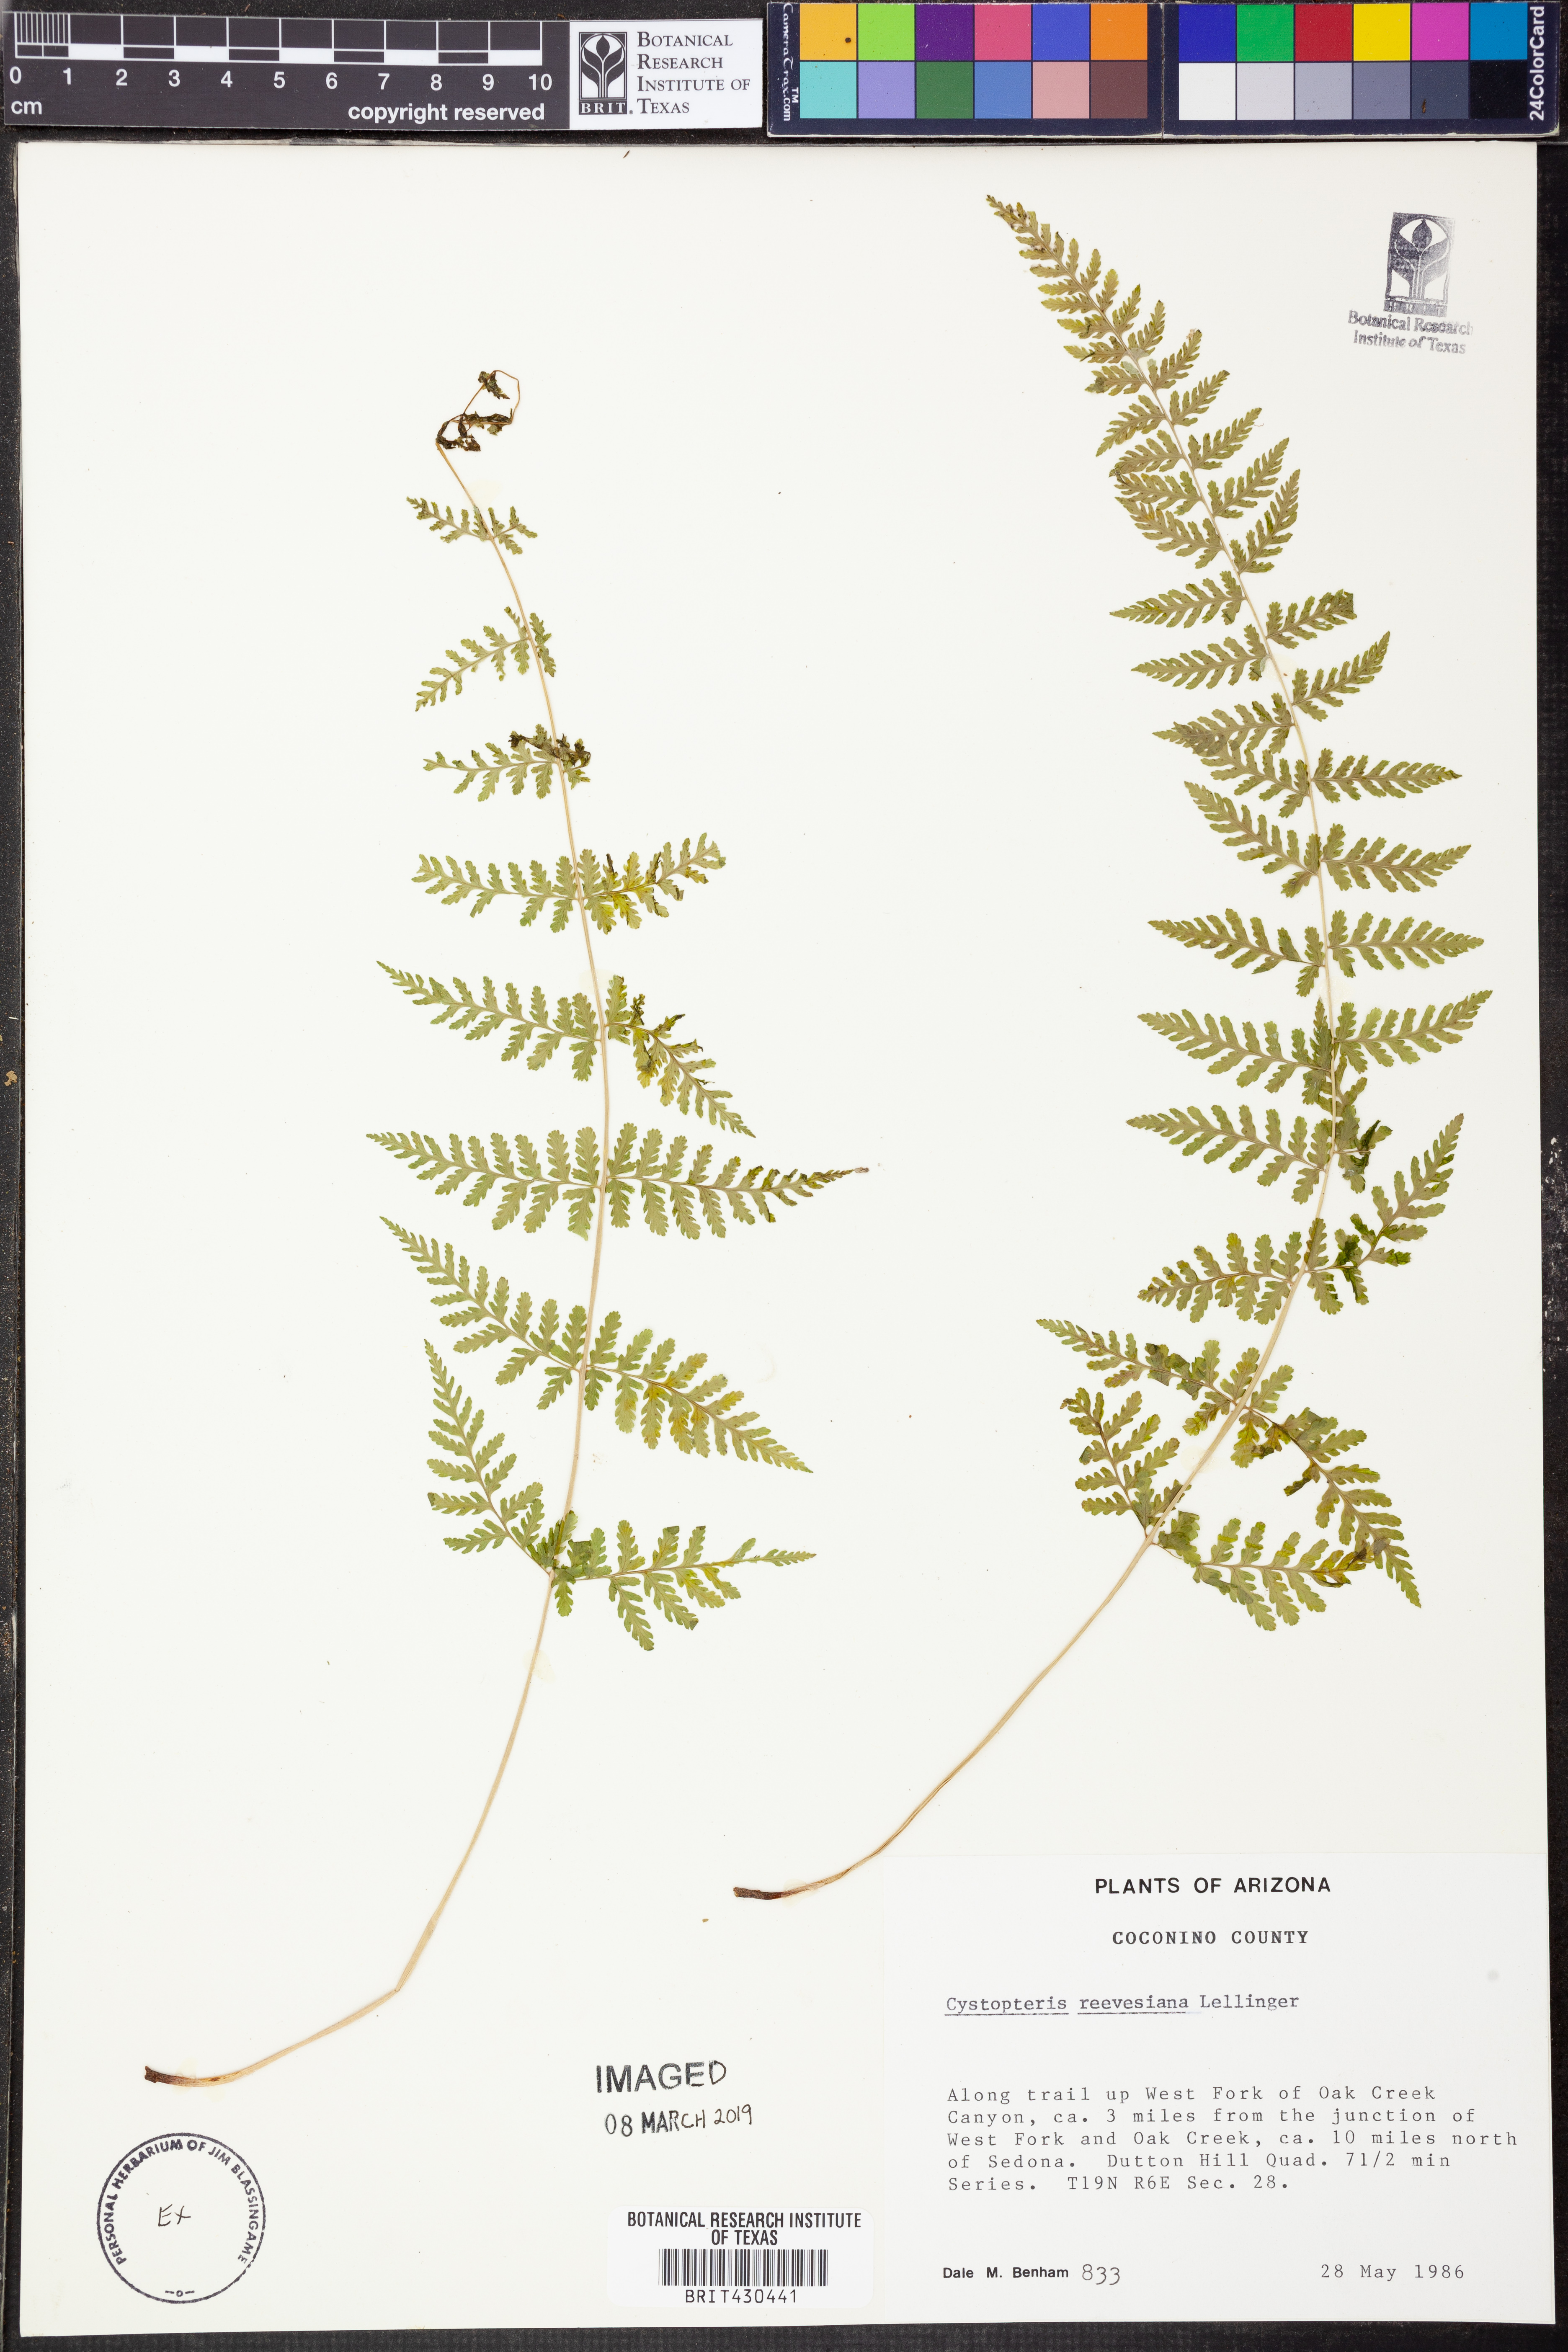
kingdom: Plantae
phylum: Tracheophyta
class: Polypodiopsida
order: Polypodiales
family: Cystopteridaceae
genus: Cystopteris
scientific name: Cystopteris reevesiana
